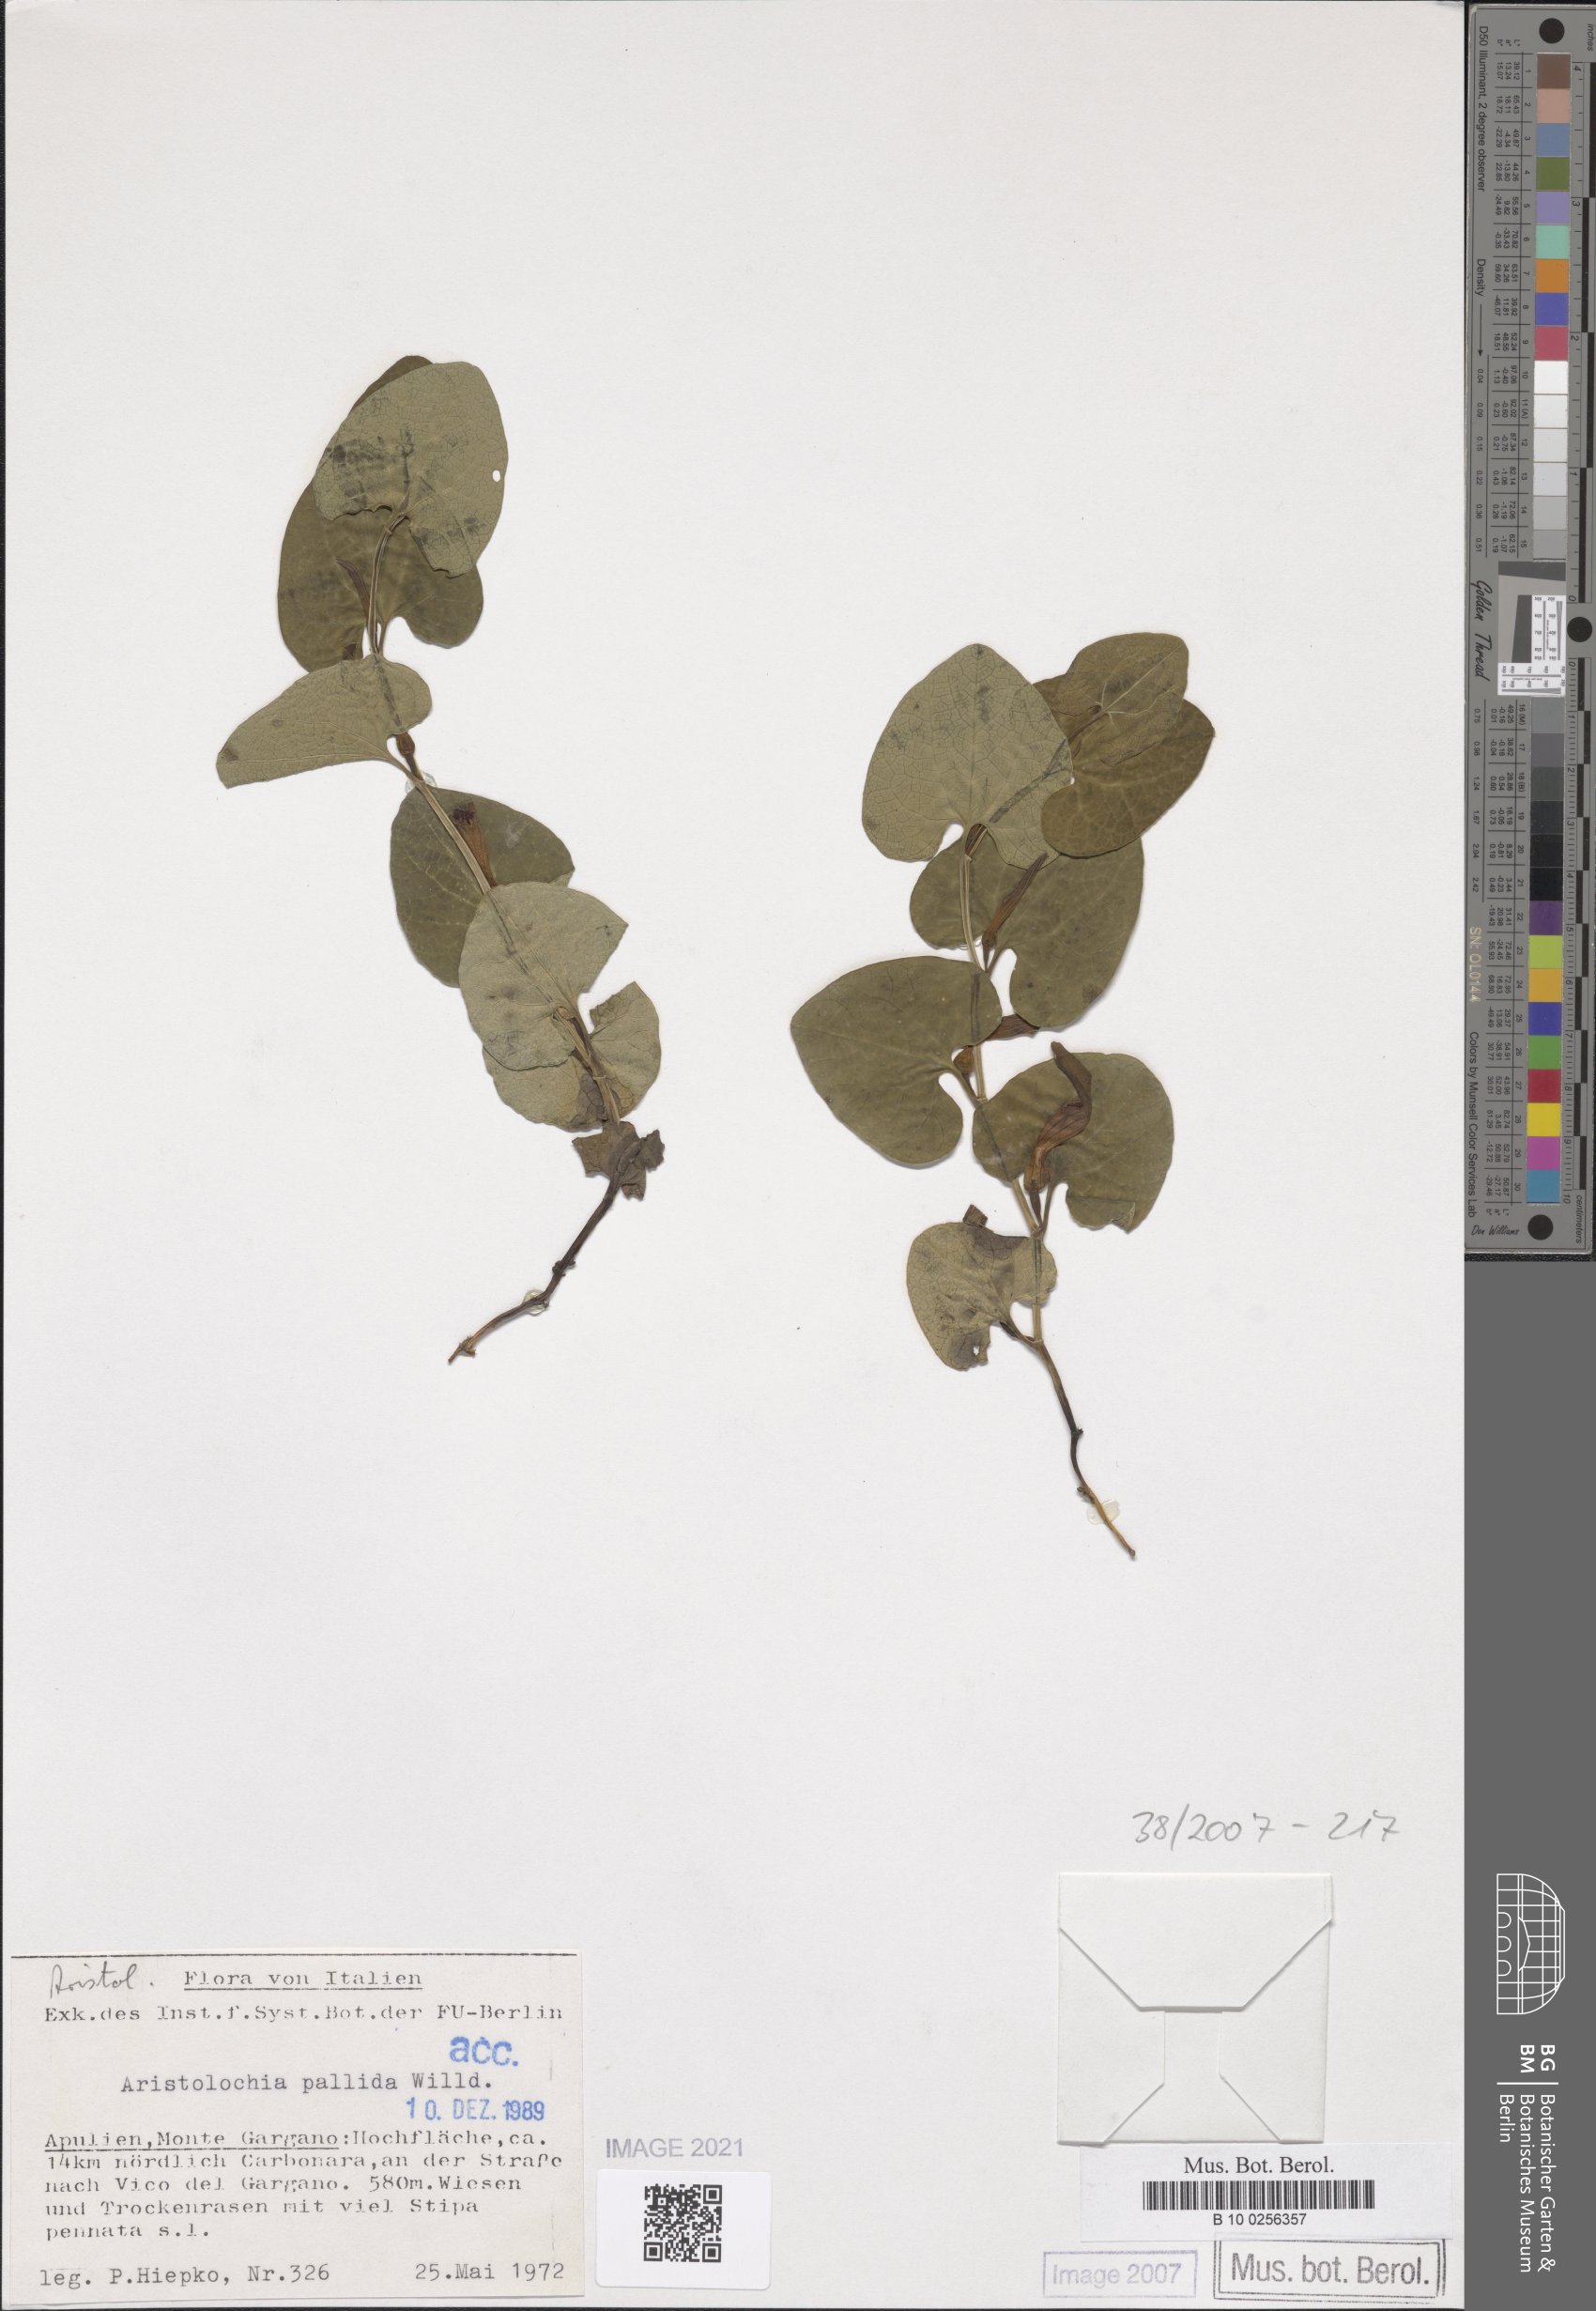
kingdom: Plantae
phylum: Tracheophyta
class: Magnoliopsida
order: Piperales
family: Aristolochiaceae
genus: Aristolochia
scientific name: Aristolochia pallida
